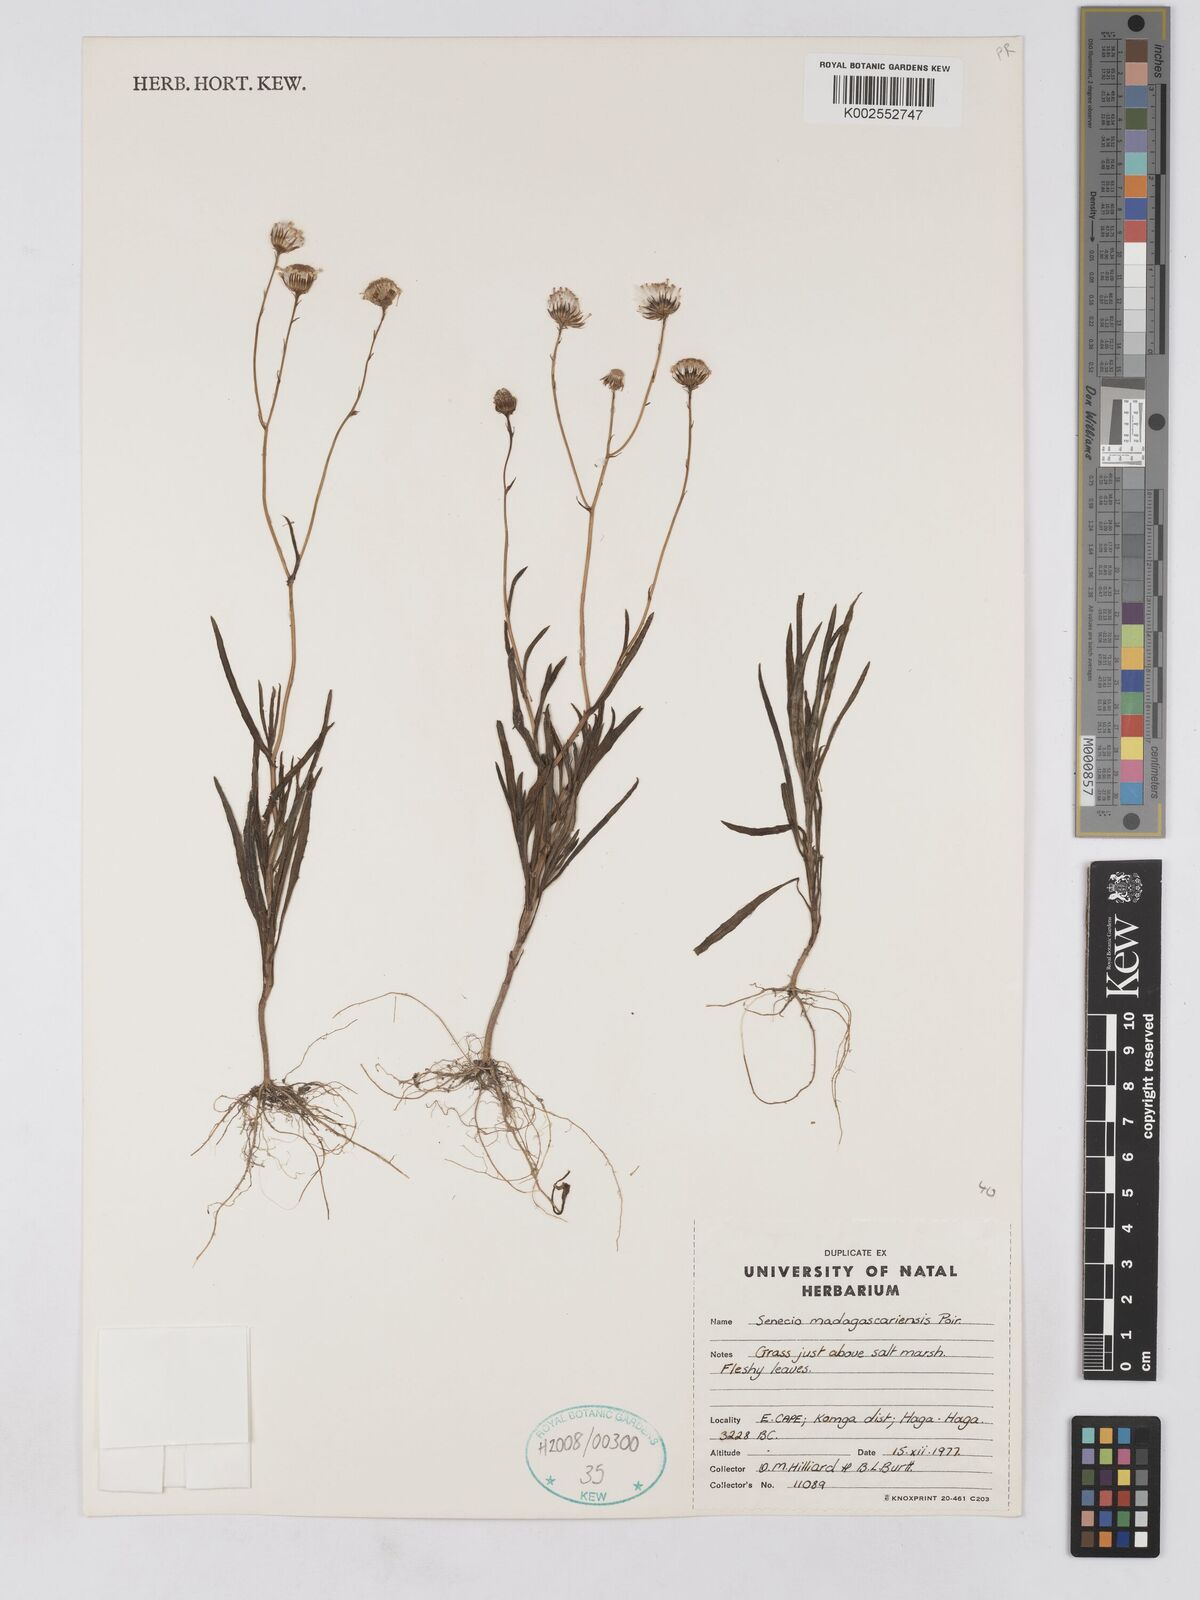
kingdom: Plantae
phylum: Tracheophyta
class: Magnoliopsida
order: Asterales
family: Asteraceae
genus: Senecio
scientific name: Senecio madagascariensis
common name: Madagascar ragwort
